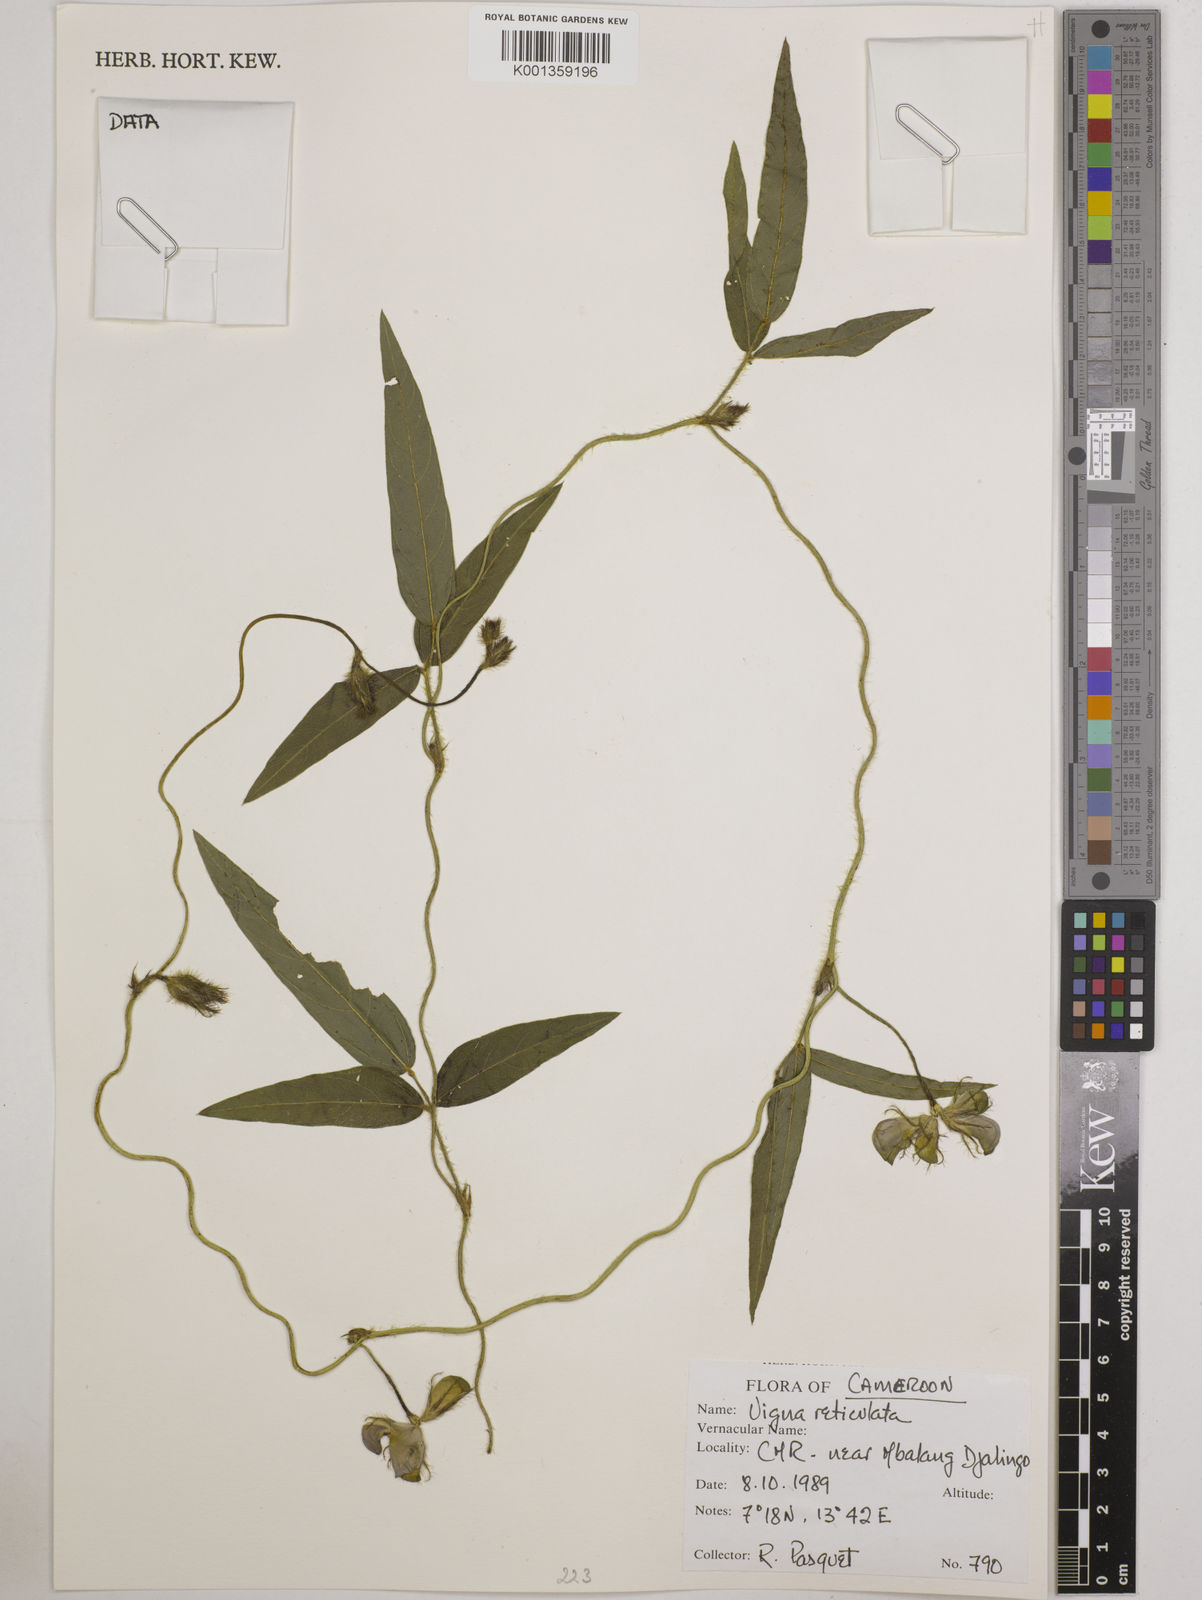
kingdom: Plantae
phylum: Tracheophyta
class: Magnoliopsida
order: Fabales
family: Fabaceae
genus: Vigna
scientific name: Vigna reticulata
